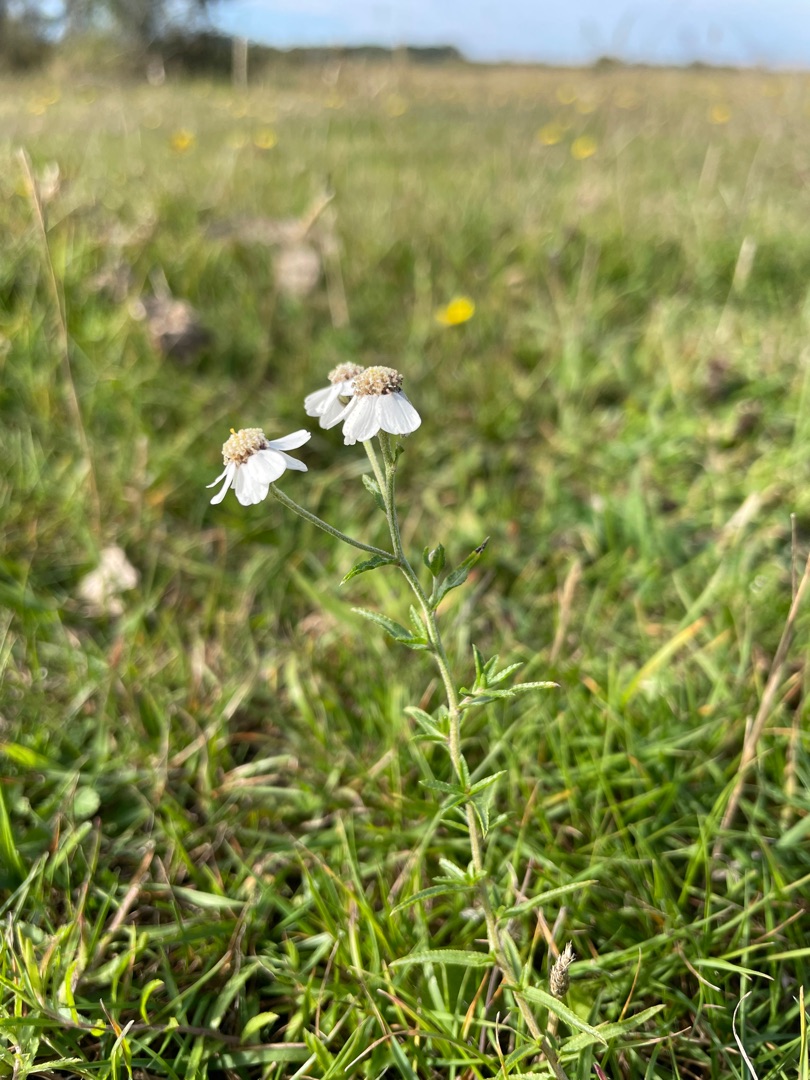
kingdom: Plantae
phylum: Tracheophyta
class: Magnoliopsida
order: Asterales
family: Asteraceae
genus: Achillea
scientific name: Achillea ptarmica
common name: Nyse-røllike
